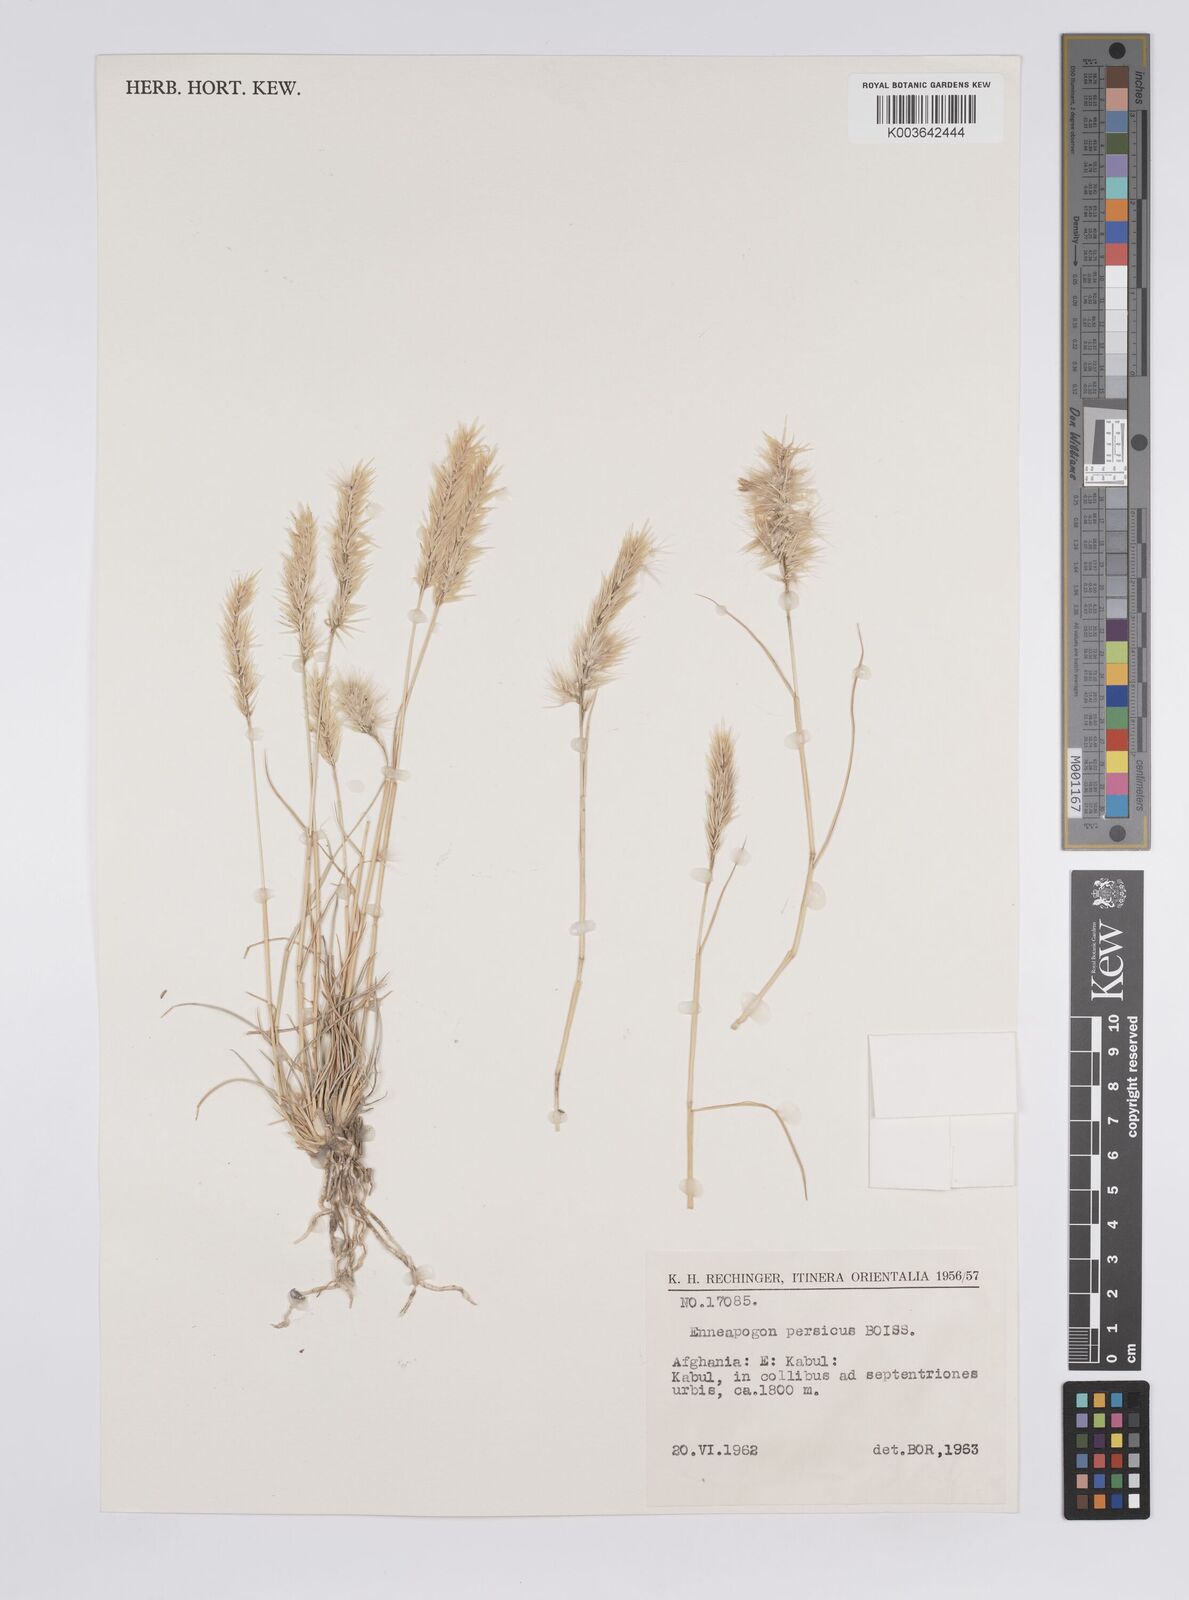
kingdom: Plantae
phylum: Tracheophyta
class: Liliopsida
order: Poales
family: Poaceae
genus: Enneapogon
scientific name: Enneapogon persicus
